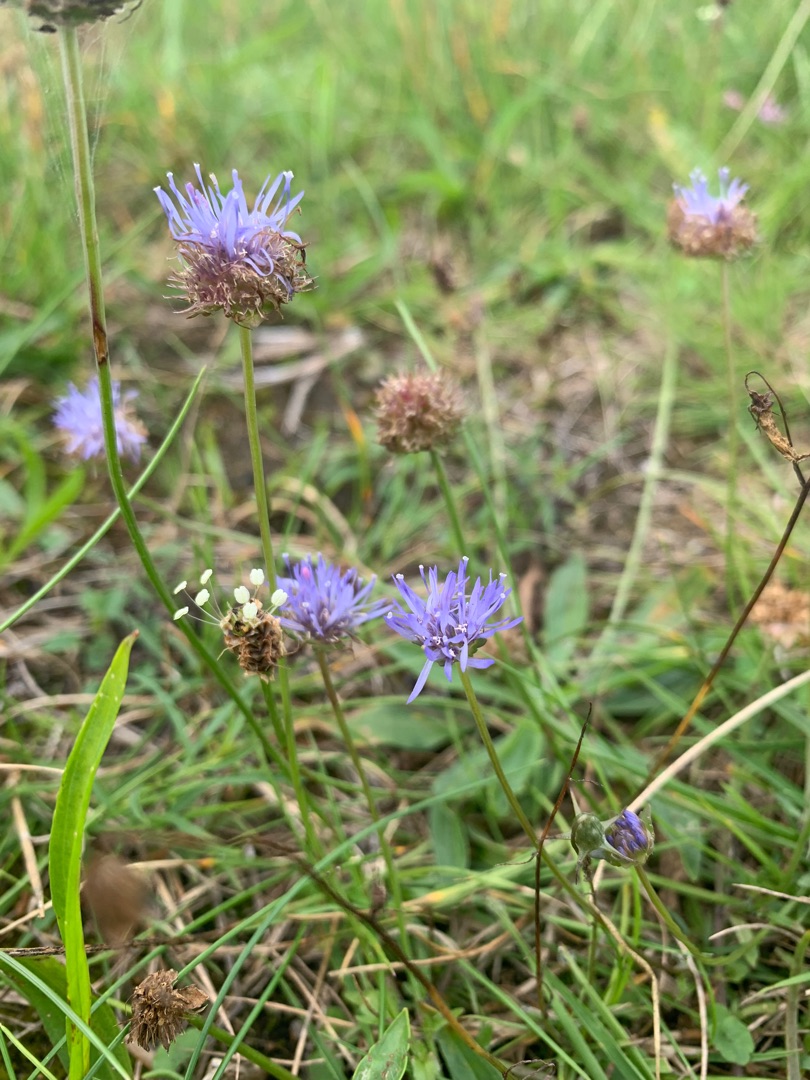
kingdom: Plantae
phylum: Tracheophyta
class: Magnoliopsida
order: Asterales
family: Campanulaceae
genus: Jasione
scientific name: Jasione montana
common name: Blåmunke
